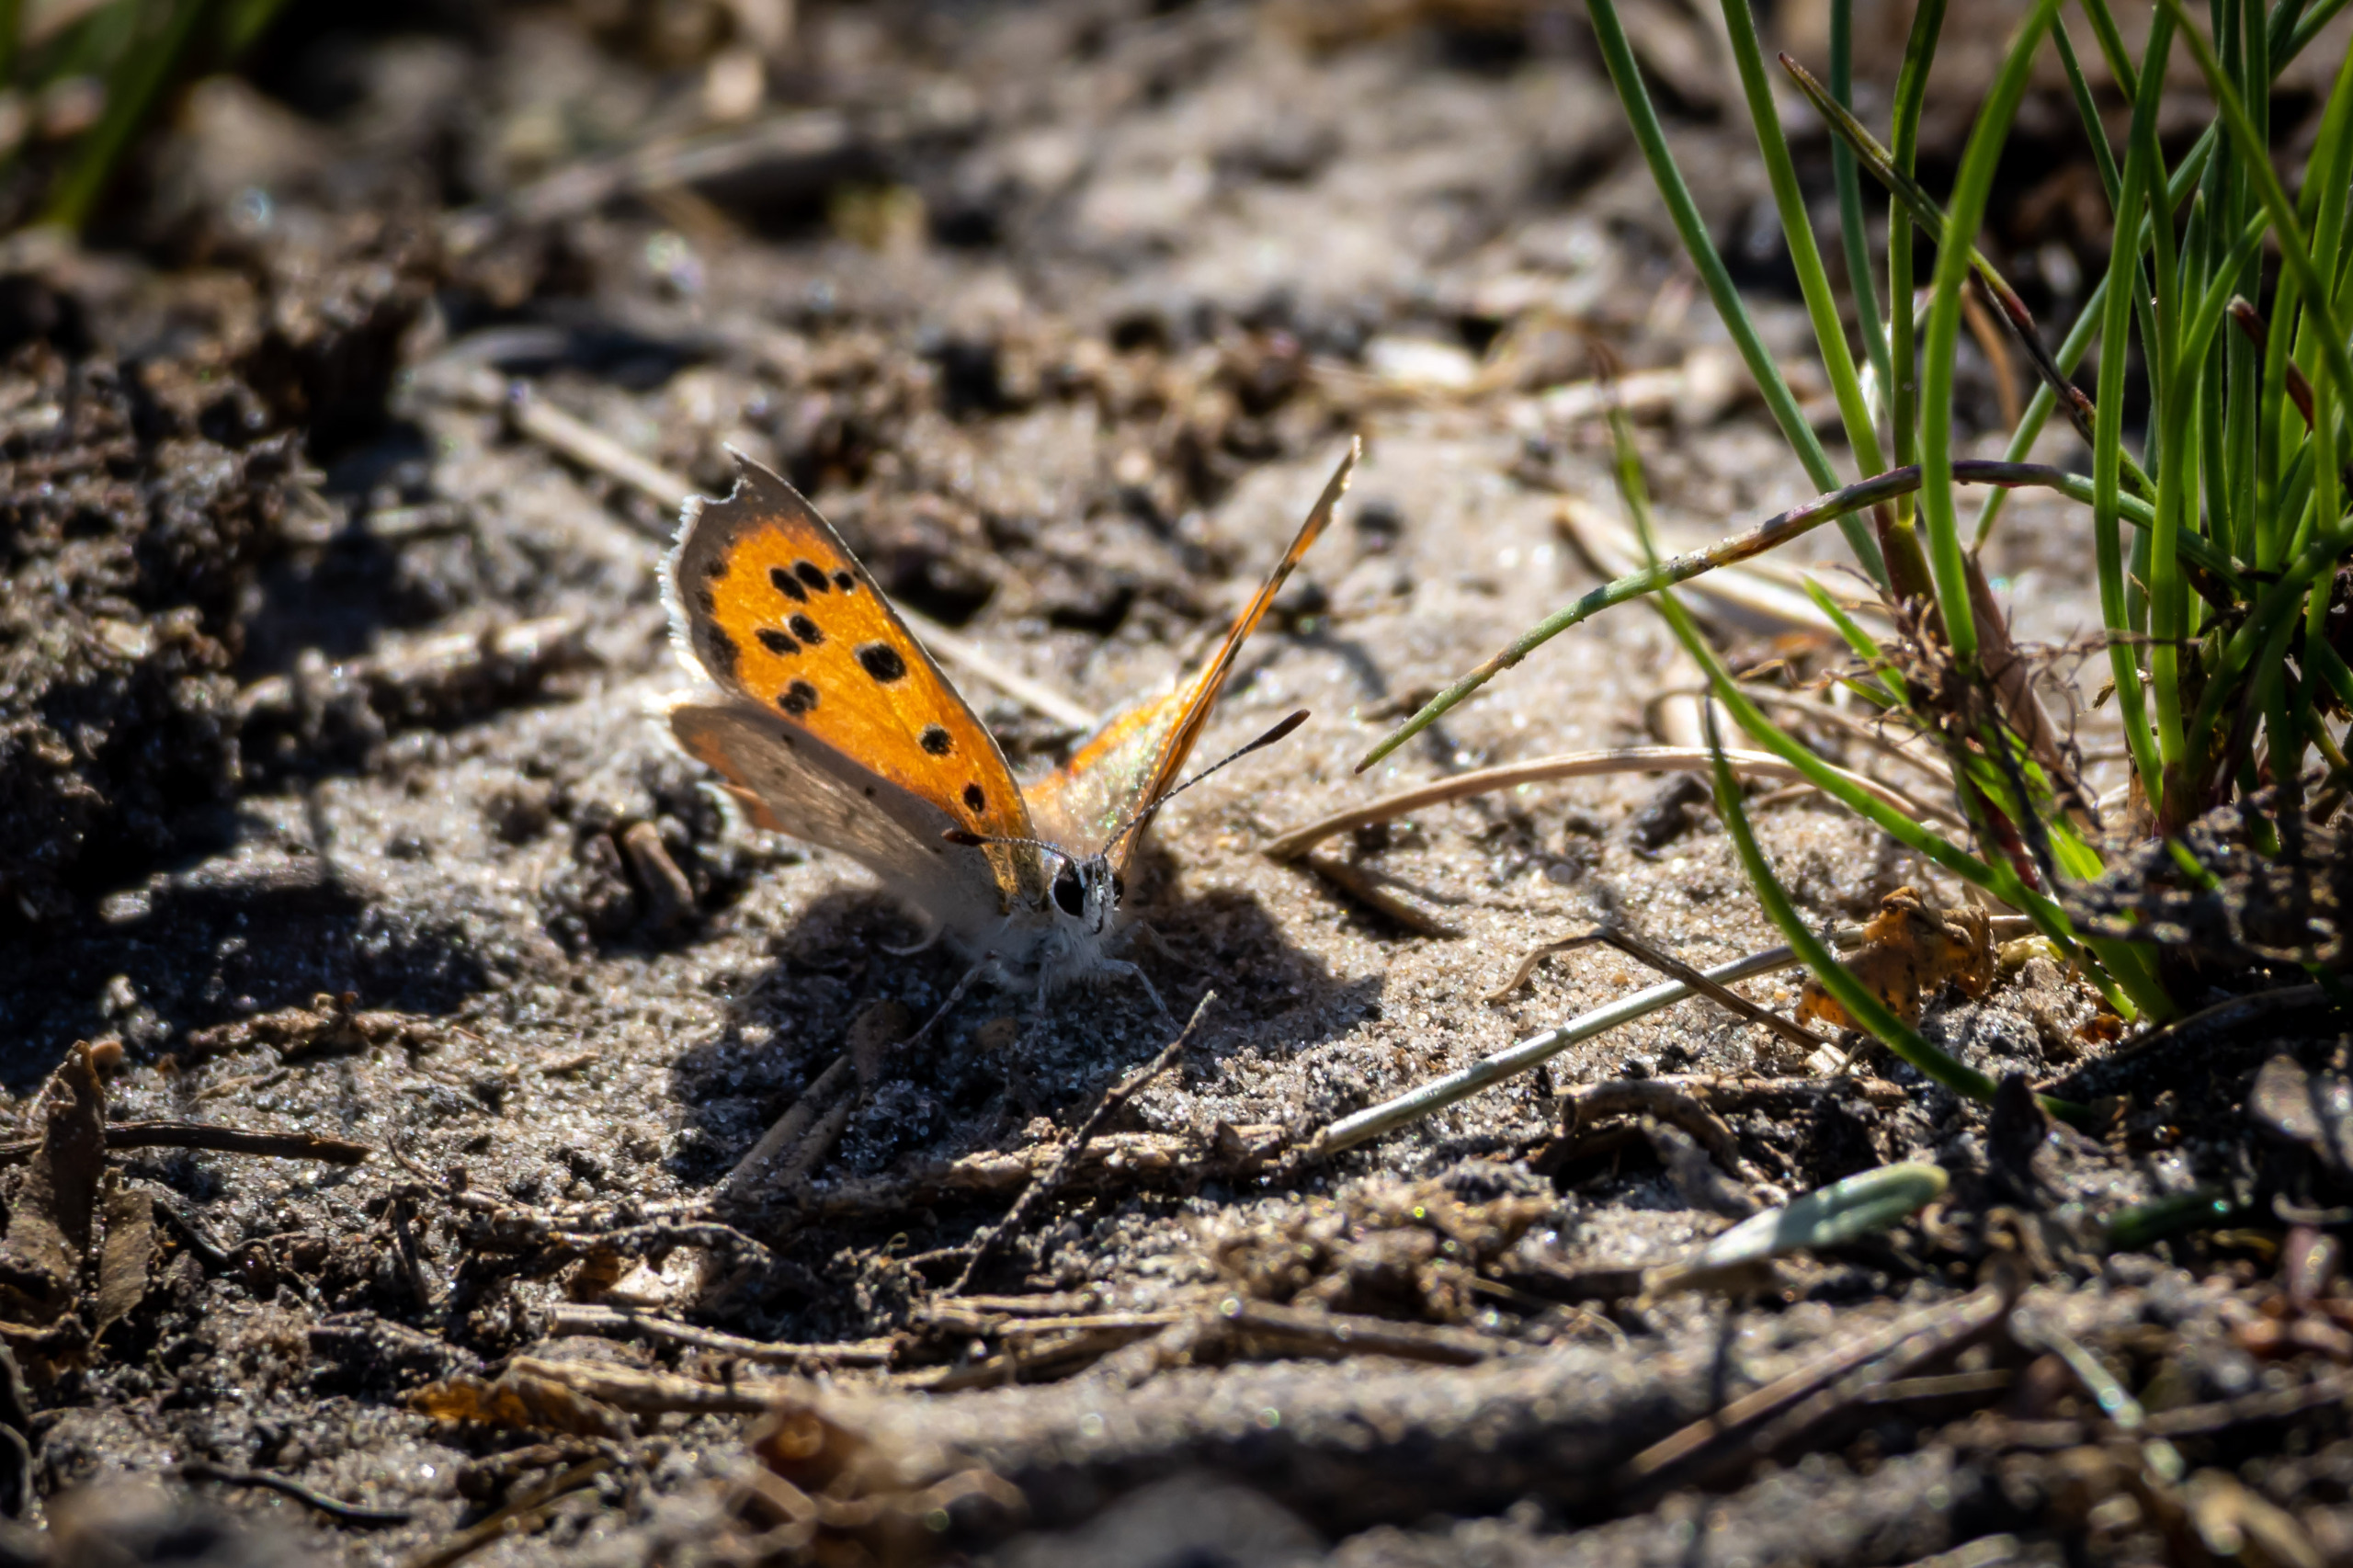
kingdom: Animalia
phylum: Arthropoda
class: Insecta
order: Lepidoptera
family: Lycaenidae
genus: Lycaena
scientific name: Lycaena phlaeas
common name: Lille ildfugl
